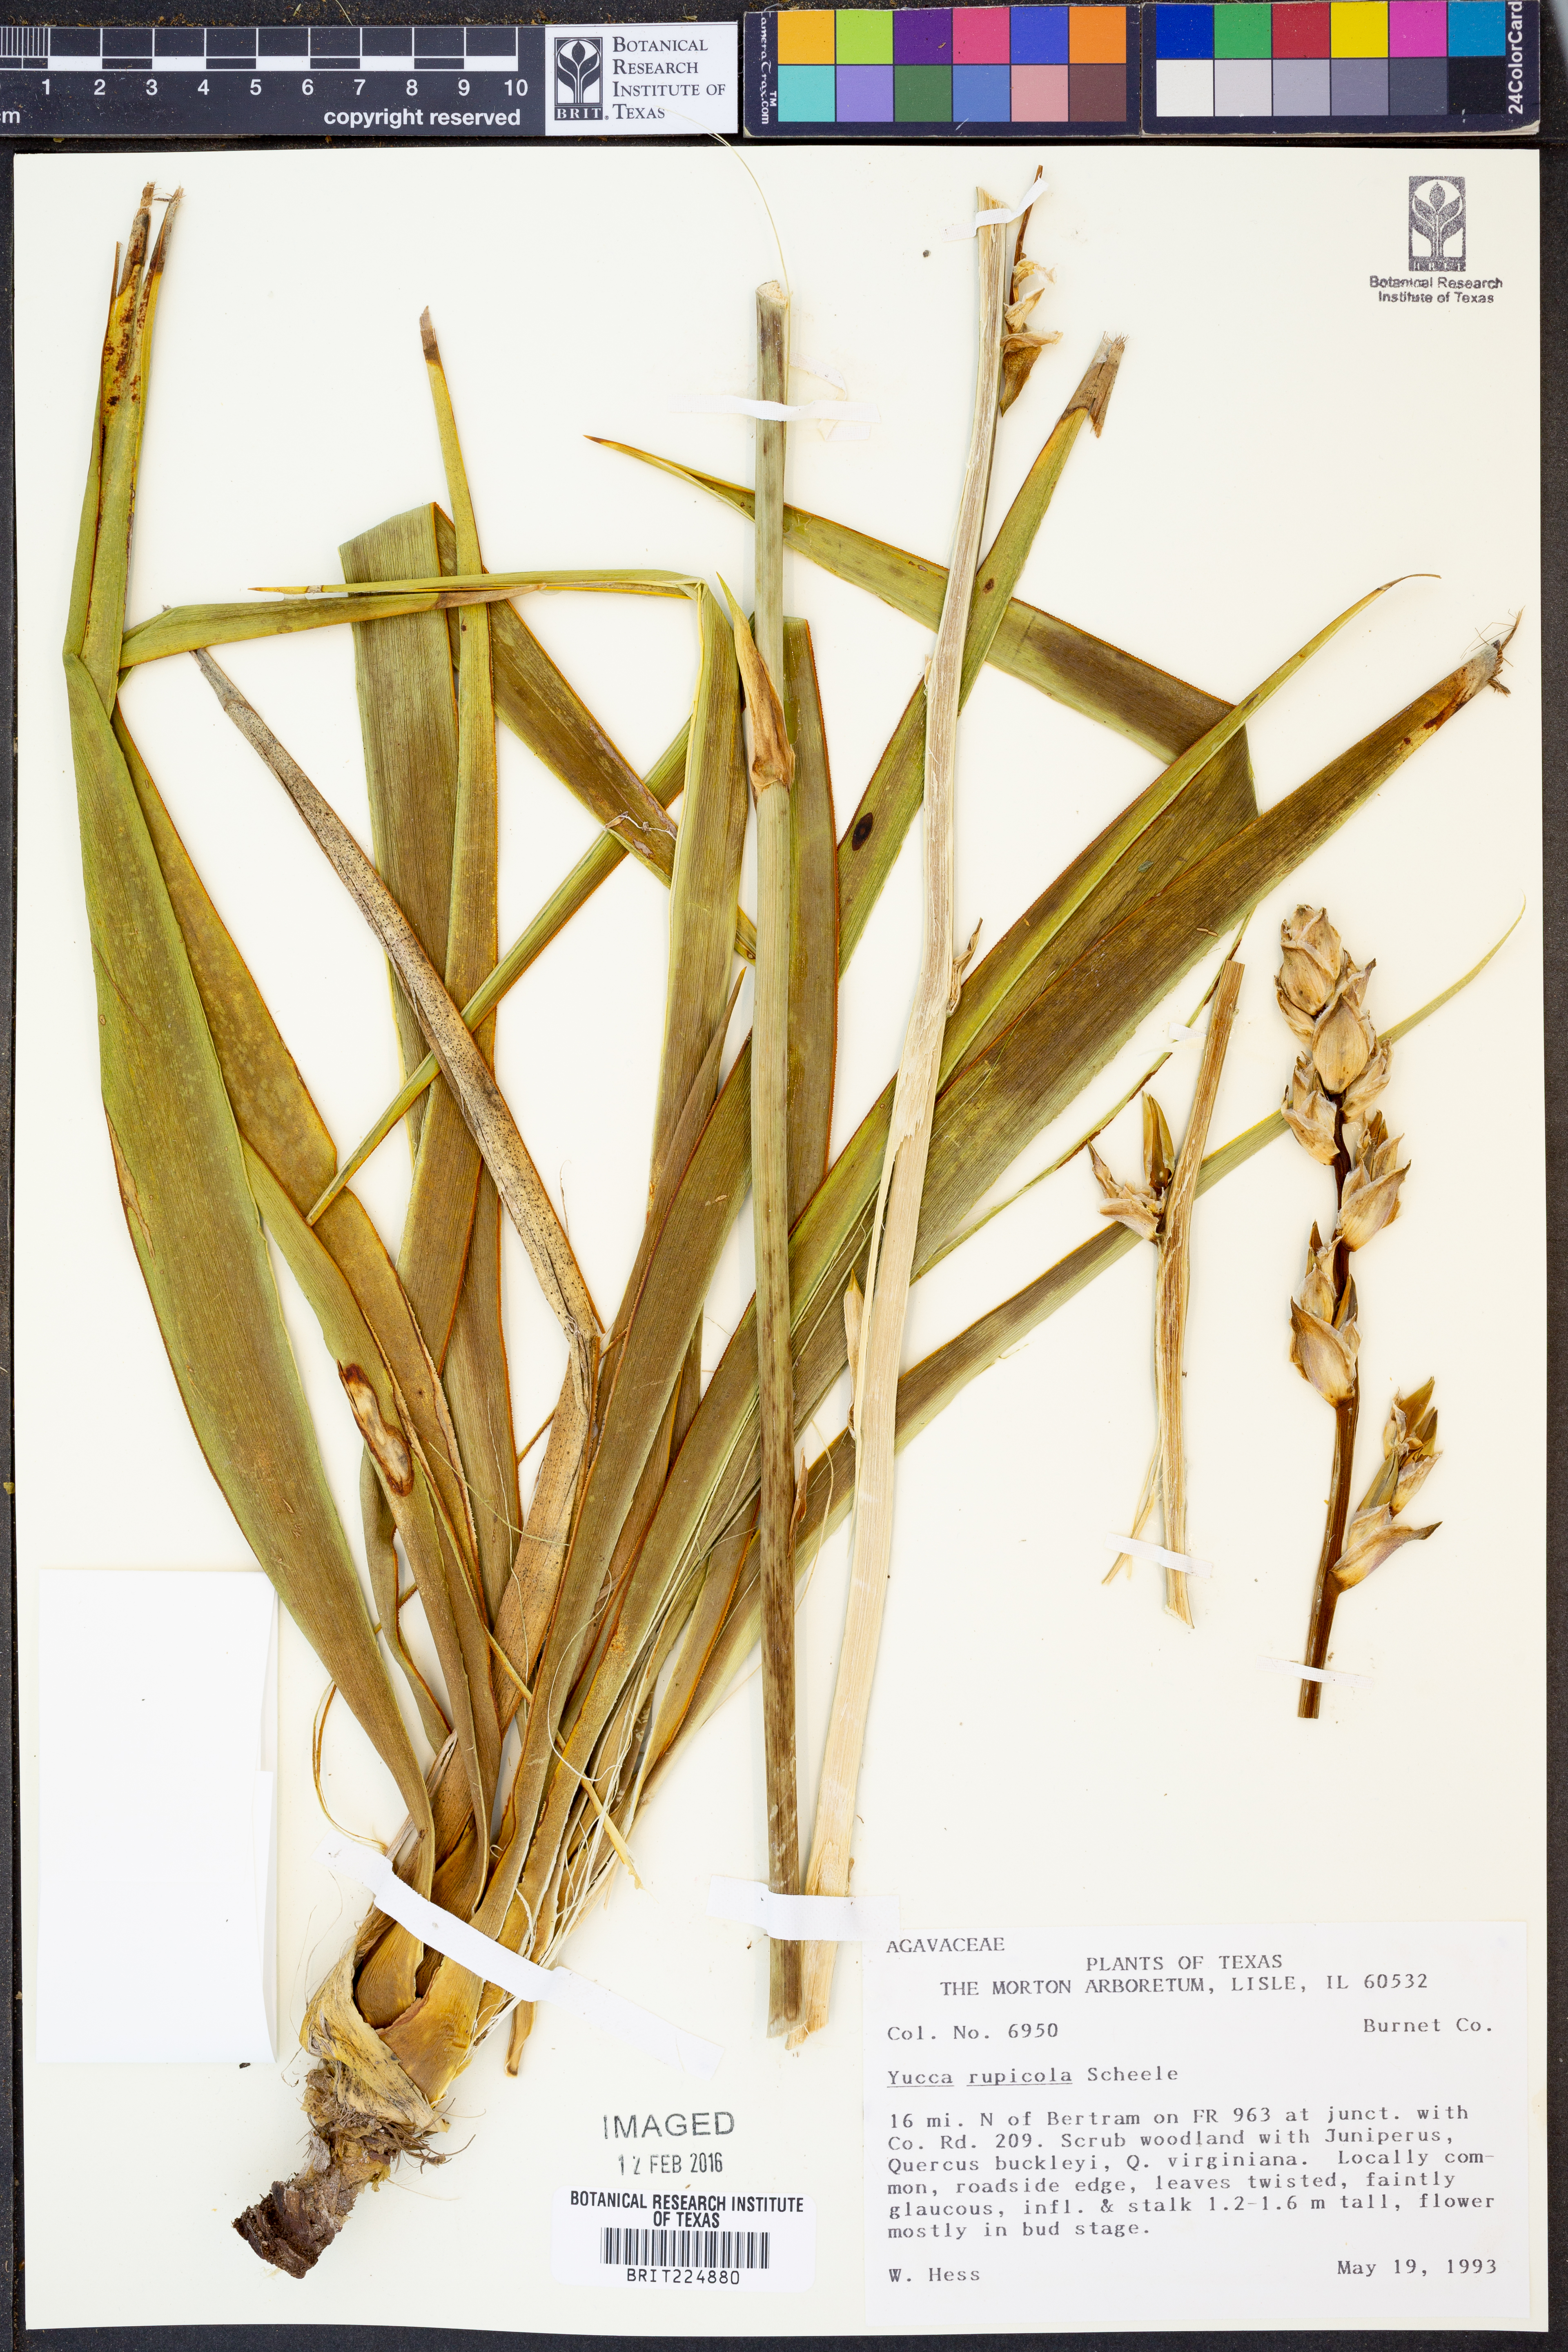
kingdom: Plantae
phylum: Tracheophyta
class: Liliopsida
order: Asparagales
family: Asparagaceae
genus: Yucca
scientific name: Yucca rupicola
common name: Twisted-leaf spanish-dagger
